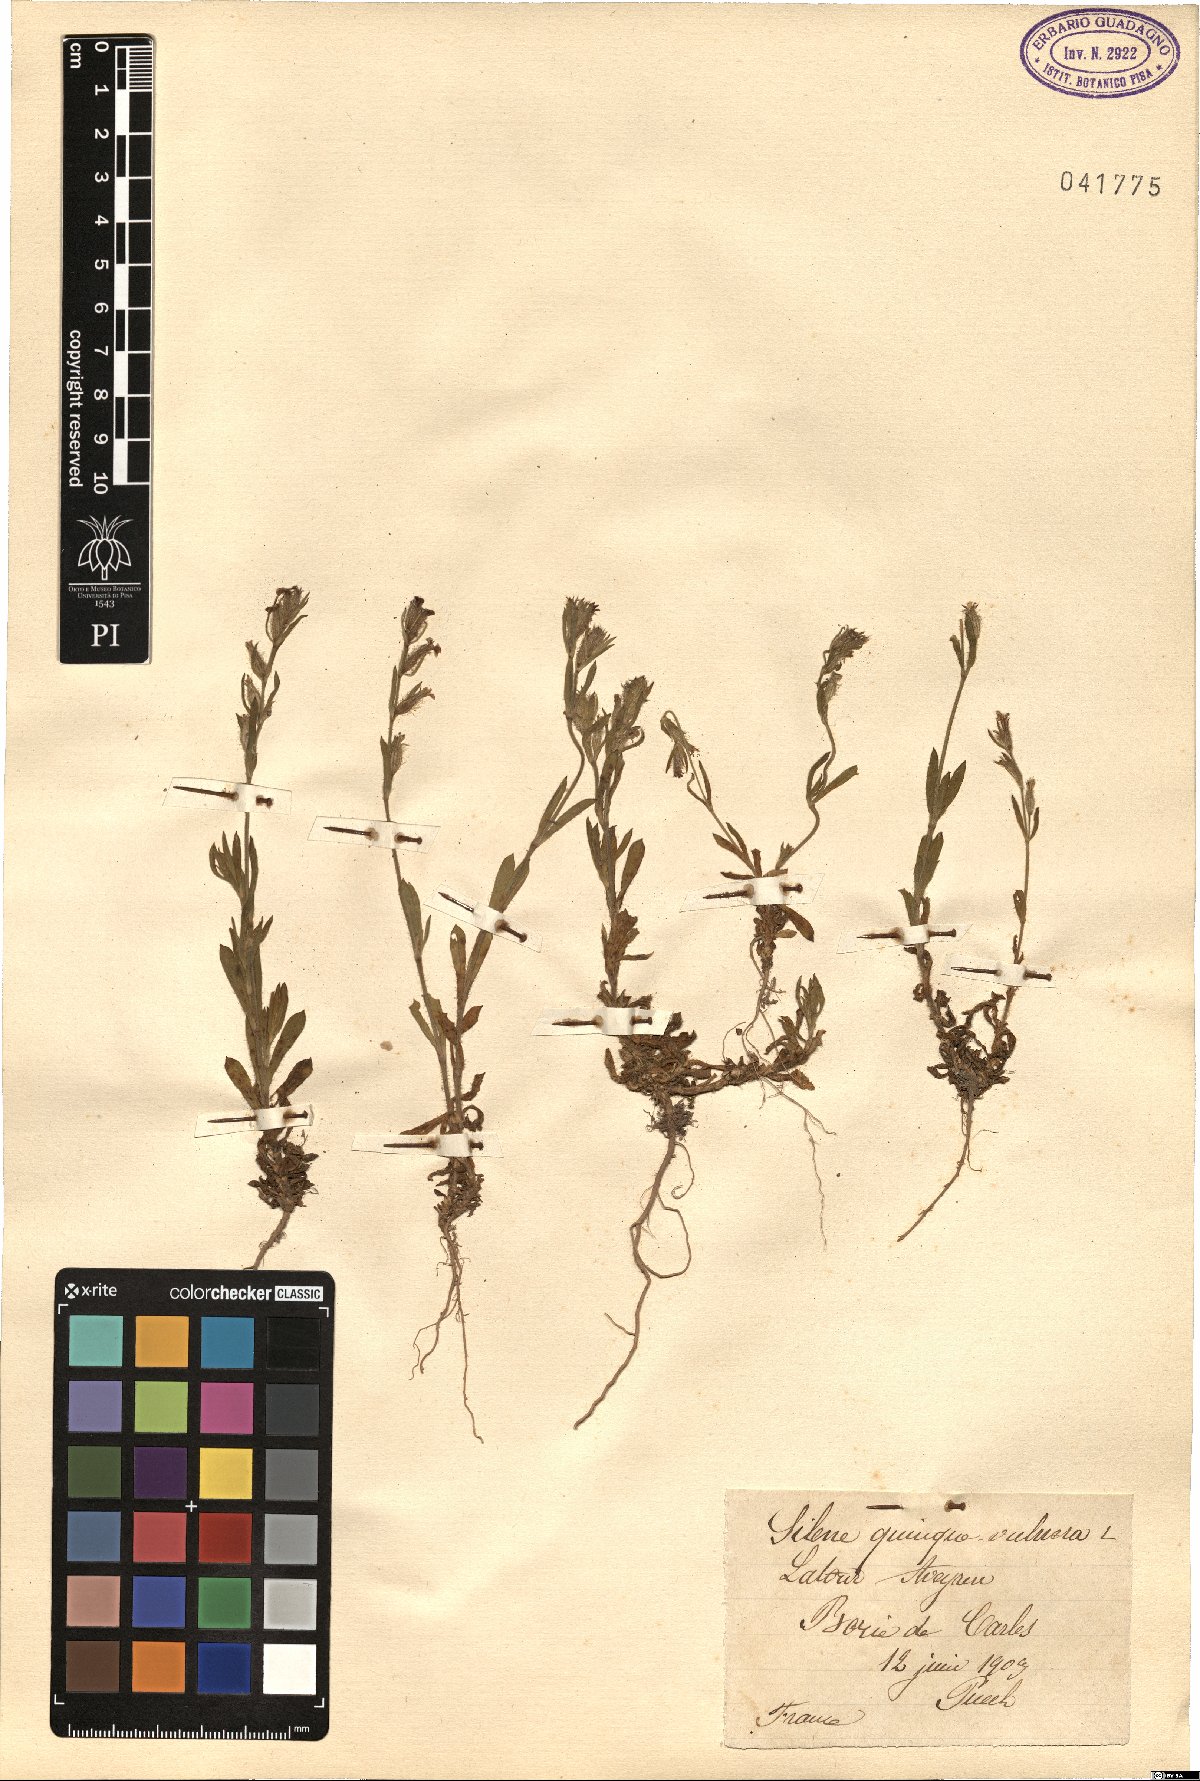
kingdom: Plantae
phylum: Tracheophyta
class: Magnoliopsida
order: Caryophyllales
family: Caryophyllaceae
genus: Silene
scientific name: Silene gallica
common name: Small-flowered catchfly
